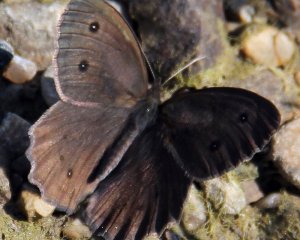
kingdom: Animalia
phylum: Arthropoda
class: Insecta
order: Lepidoptera
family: Nymphalidae
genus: Cercyonis
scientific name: Cercyonis pegala
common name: Common Wood-Nymph
